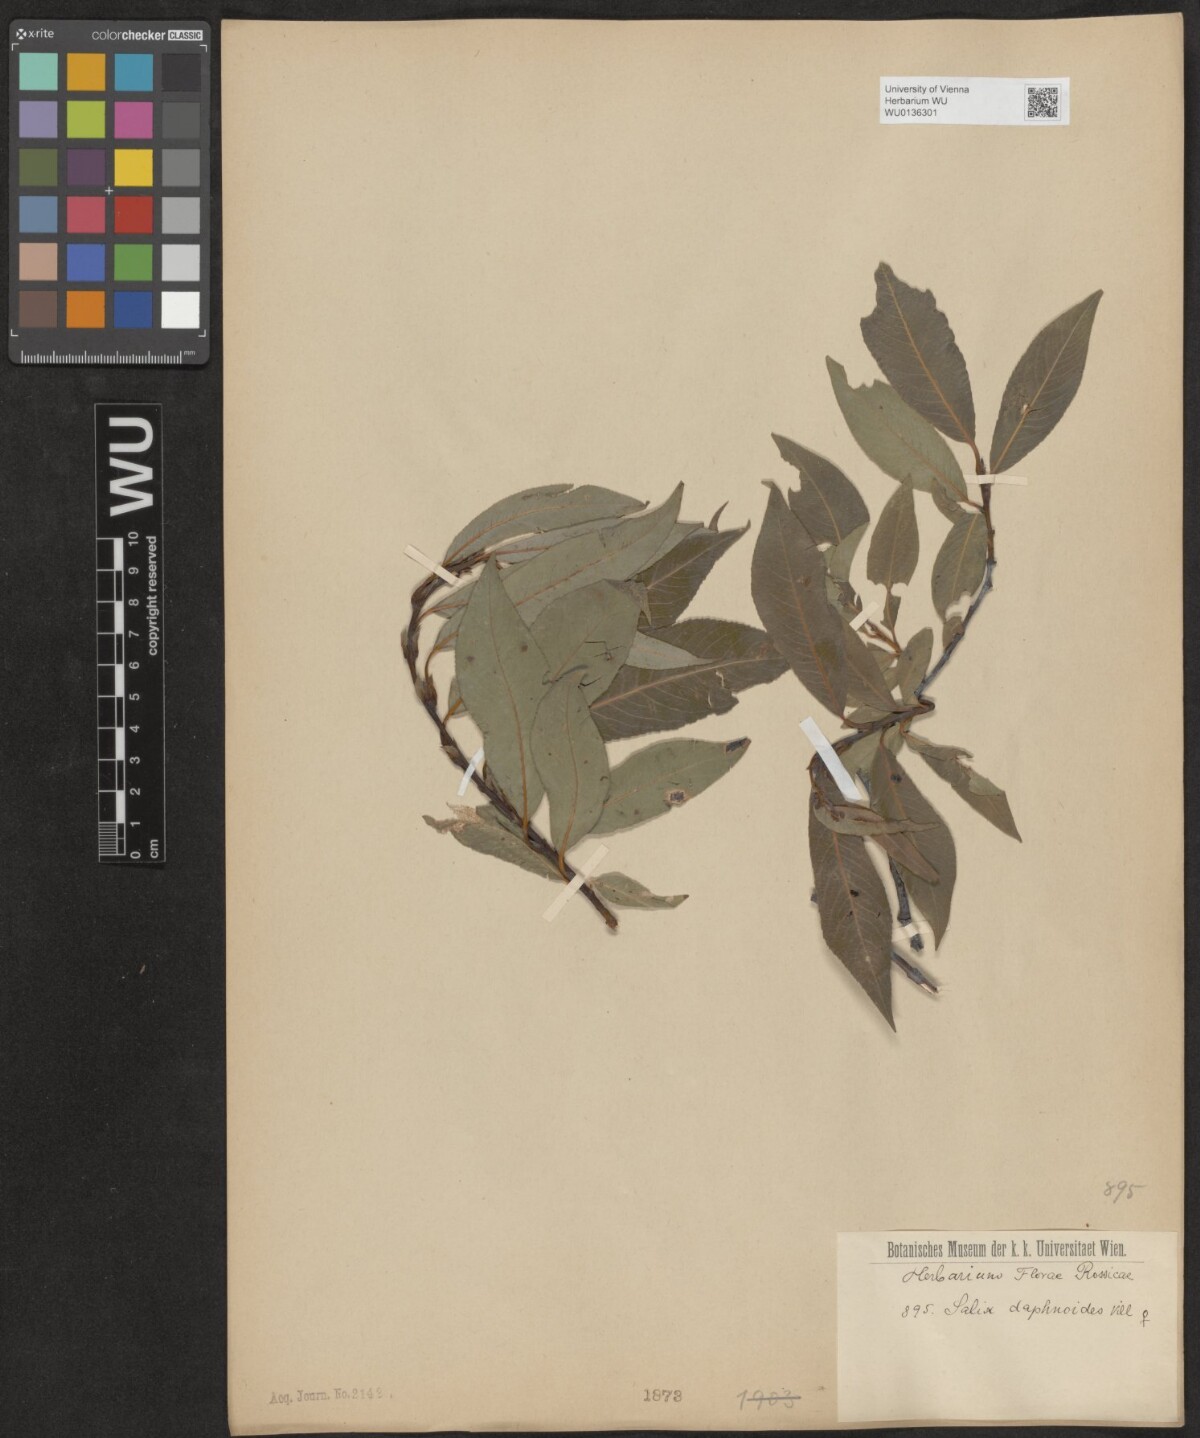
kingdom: Plantae
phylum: Tracheophyta
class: Magnoliopsida
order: Malpighiales
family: Salicaceae
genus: Salix
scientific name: Salix daphnoides
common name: European violet-willow
